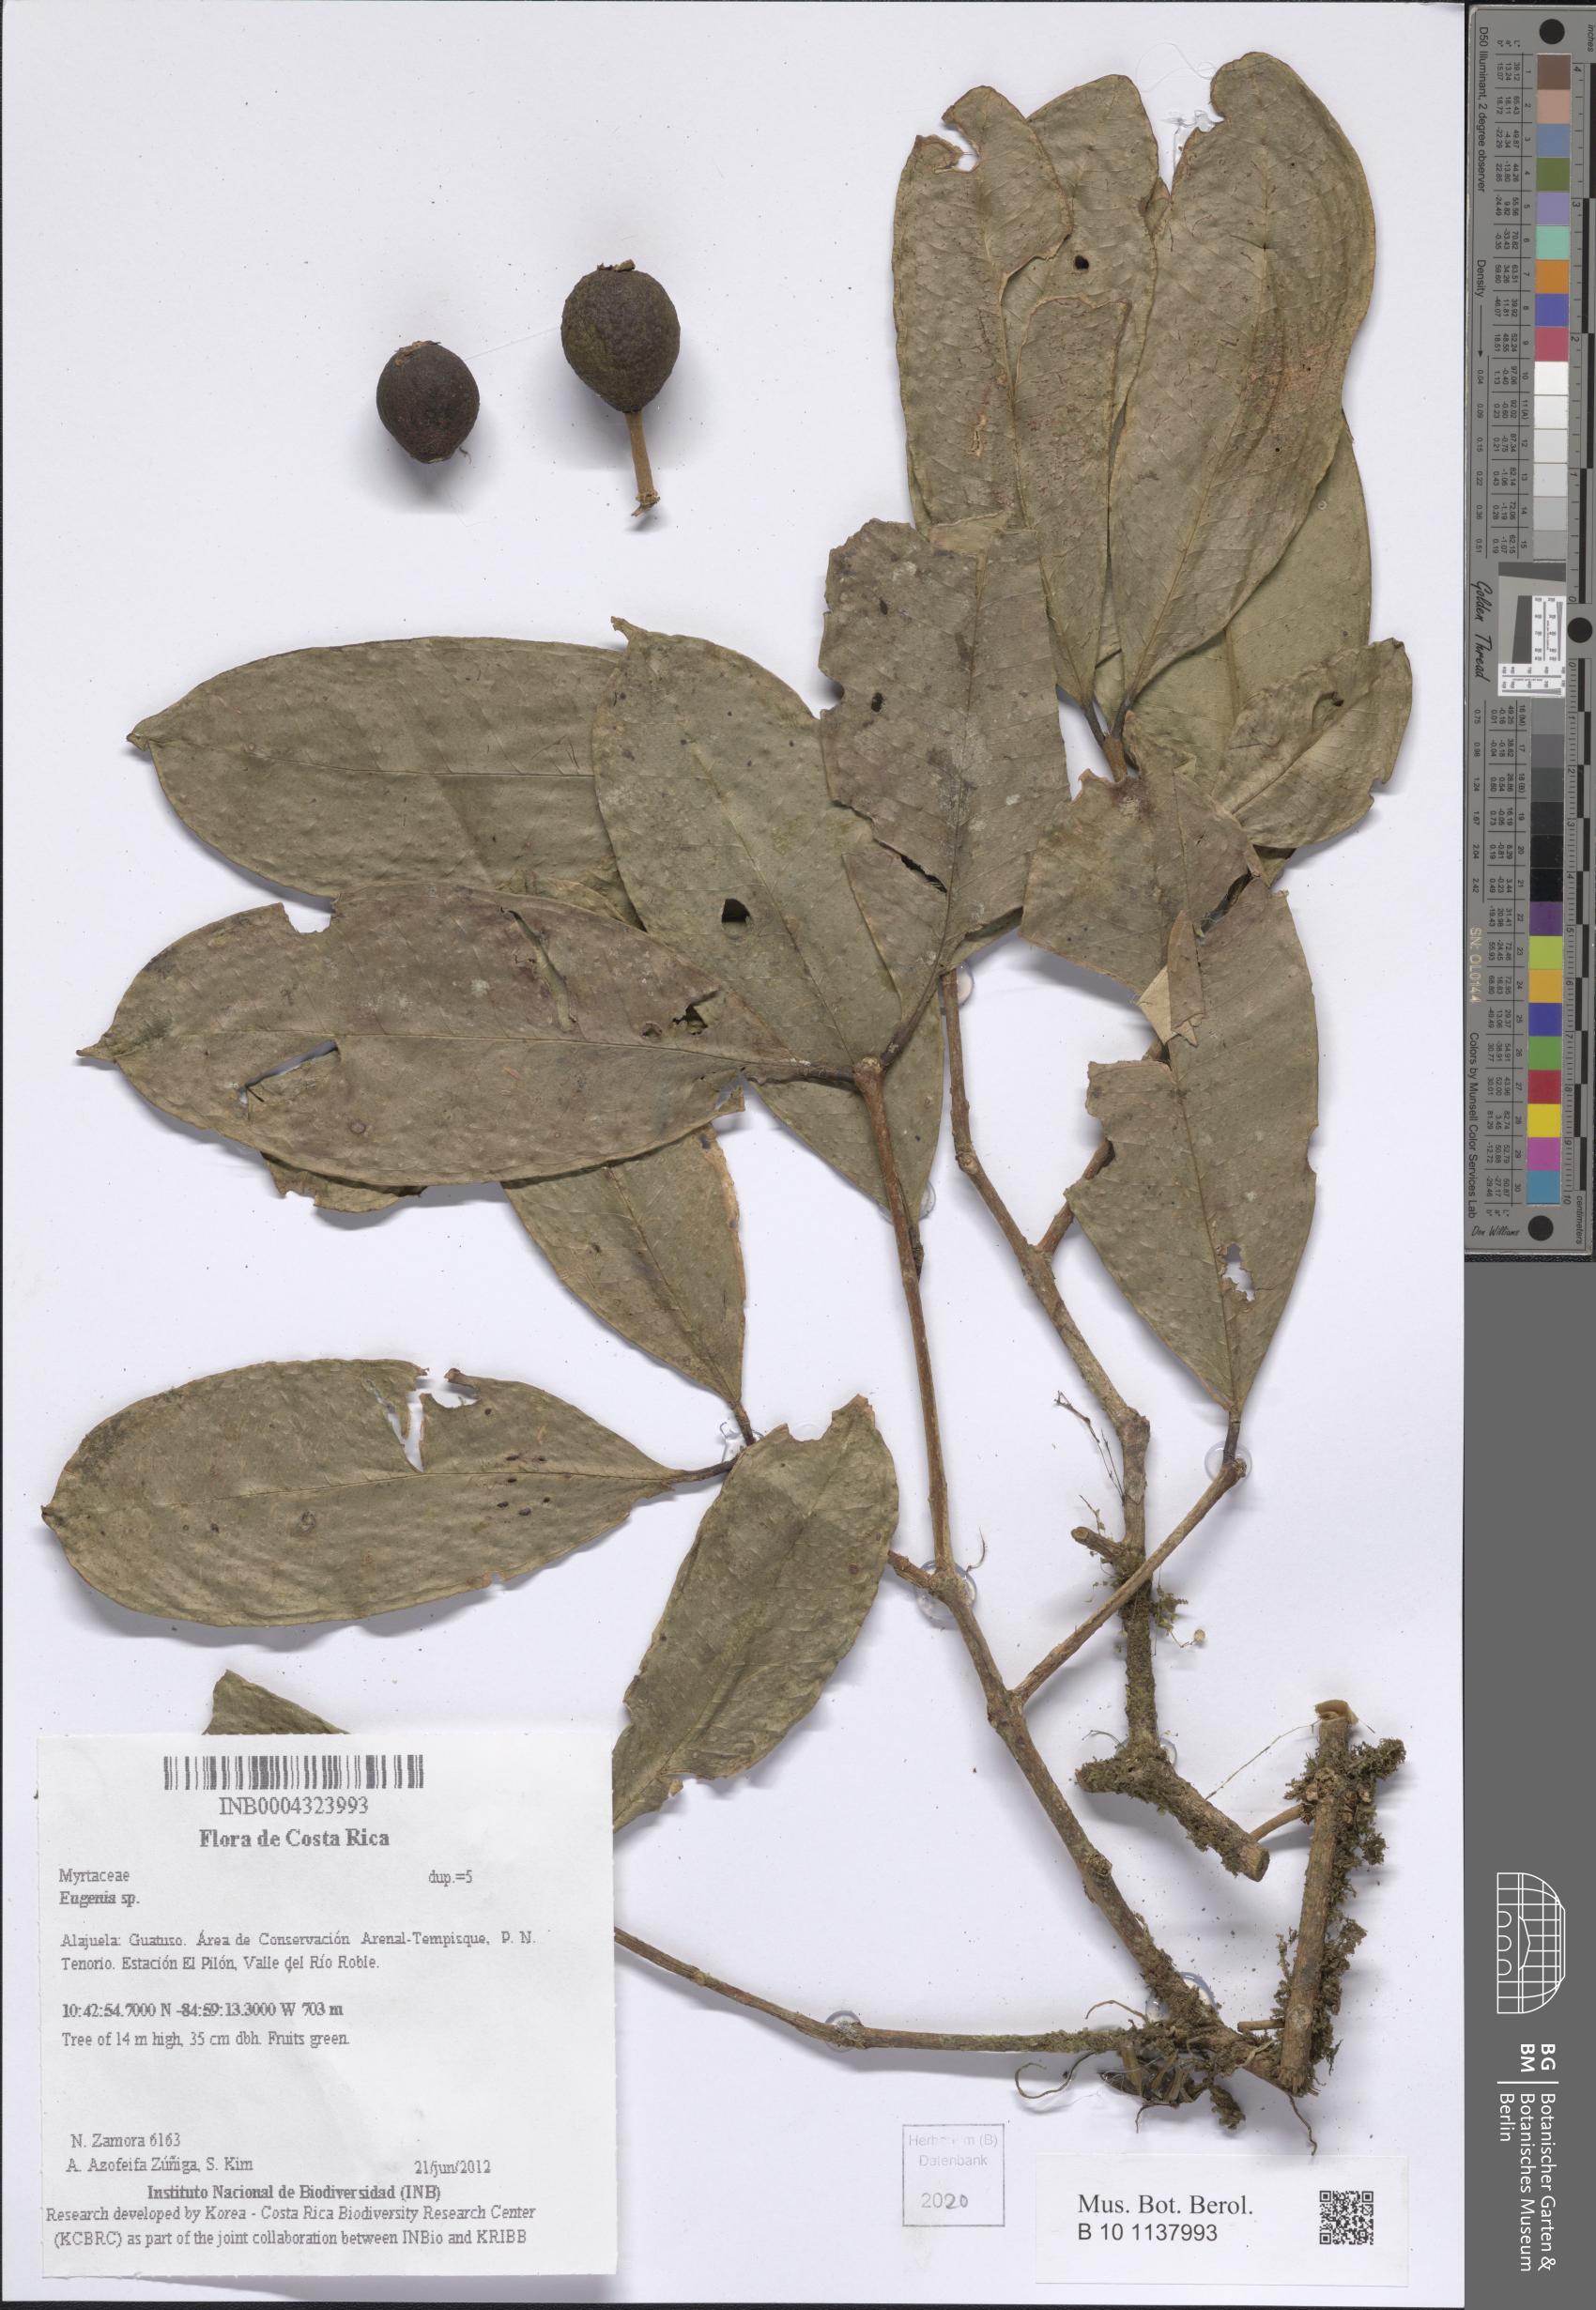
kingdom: Plantae
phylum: Tracheophyta
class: Magnoliopsida
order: Myrtales
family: Myrtaceae
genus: Eugenia
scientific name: Eugenia
